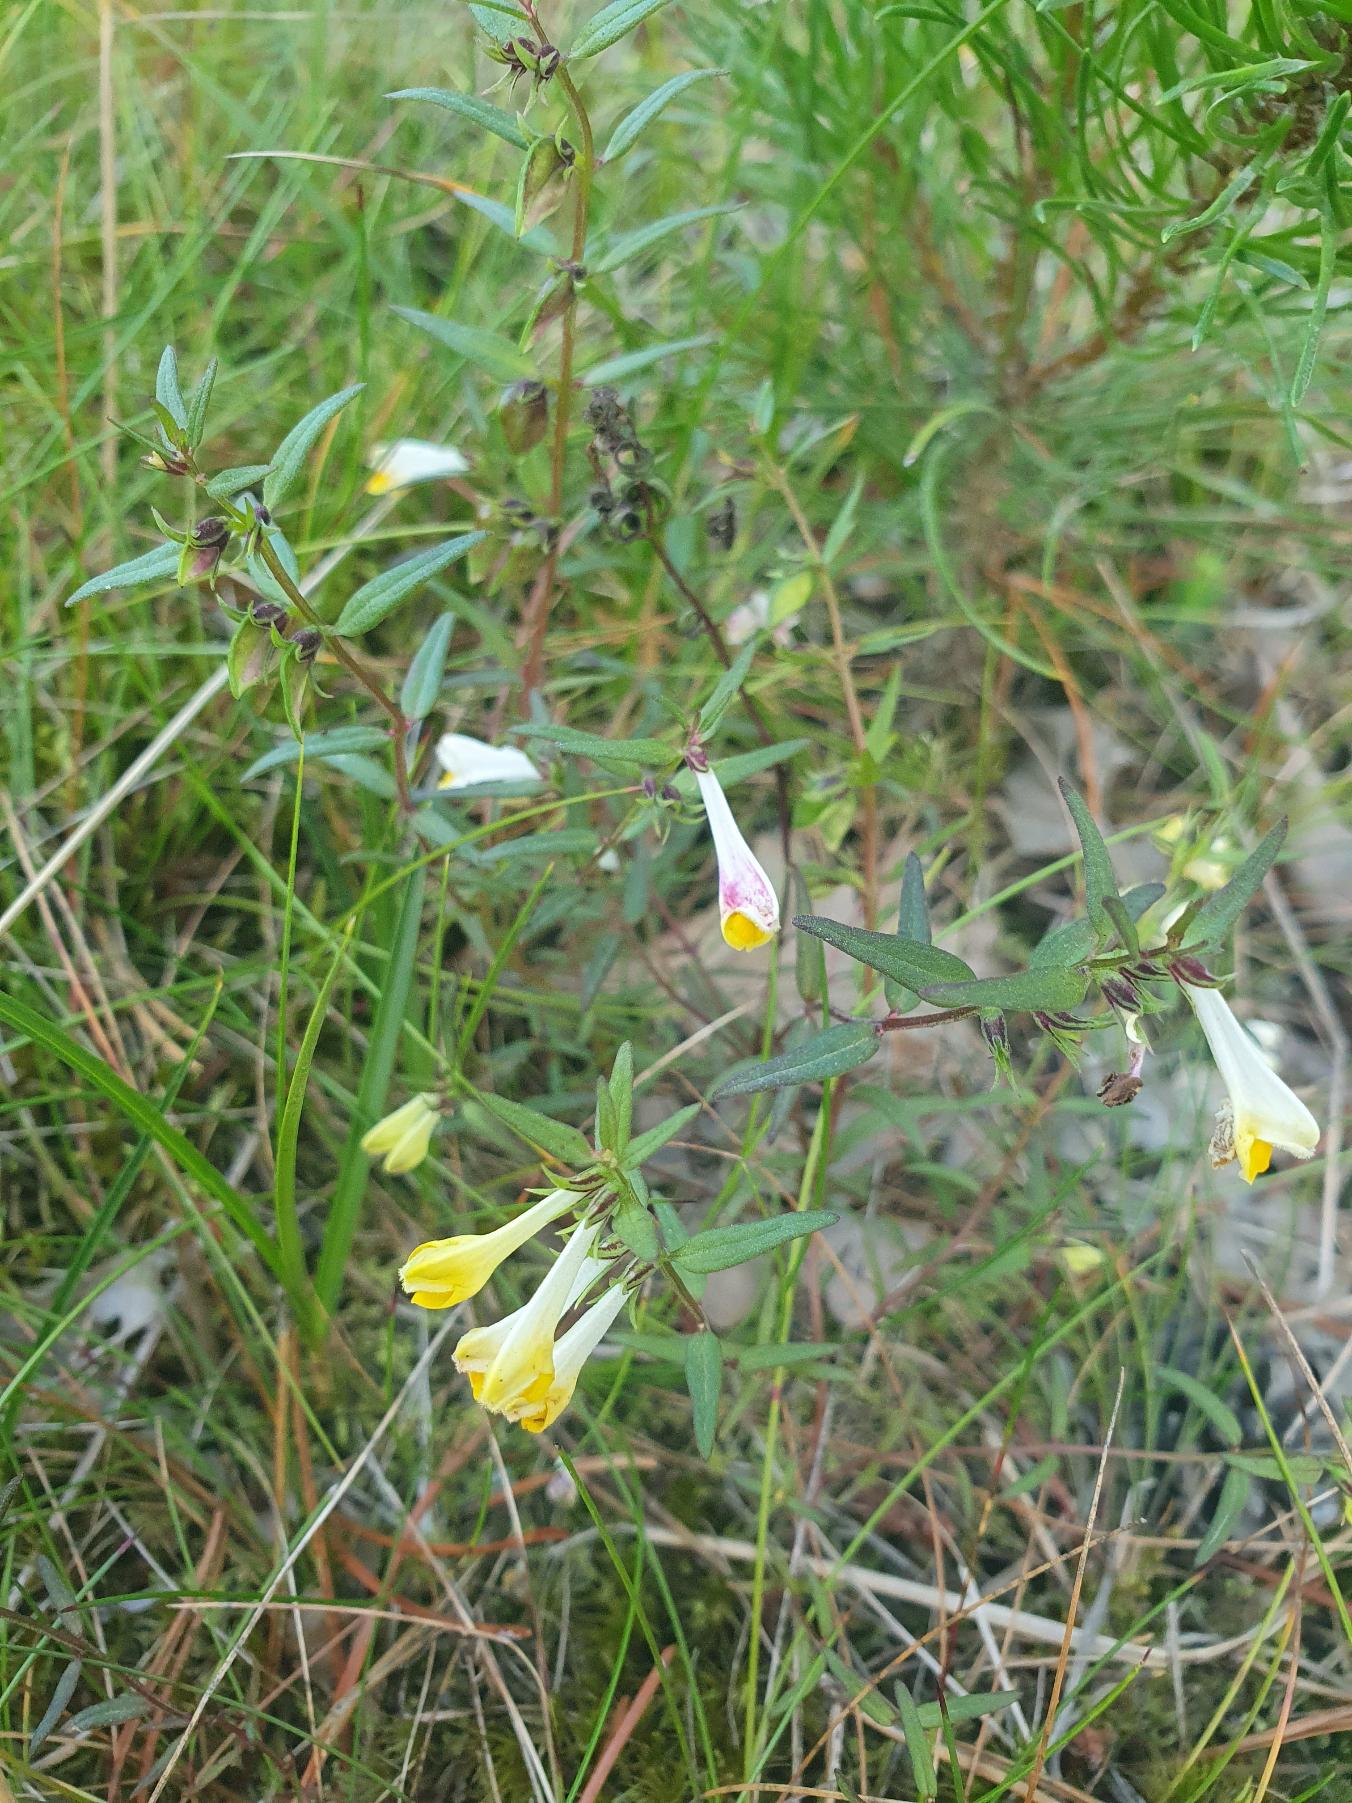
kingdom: Plantae
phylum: Tracheophyta
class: Magnoliopsida
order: Lamiales
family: Orobanchaceae
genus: Melampyrum
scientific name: Melampyrum pratense
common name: Almindelig kohvede
